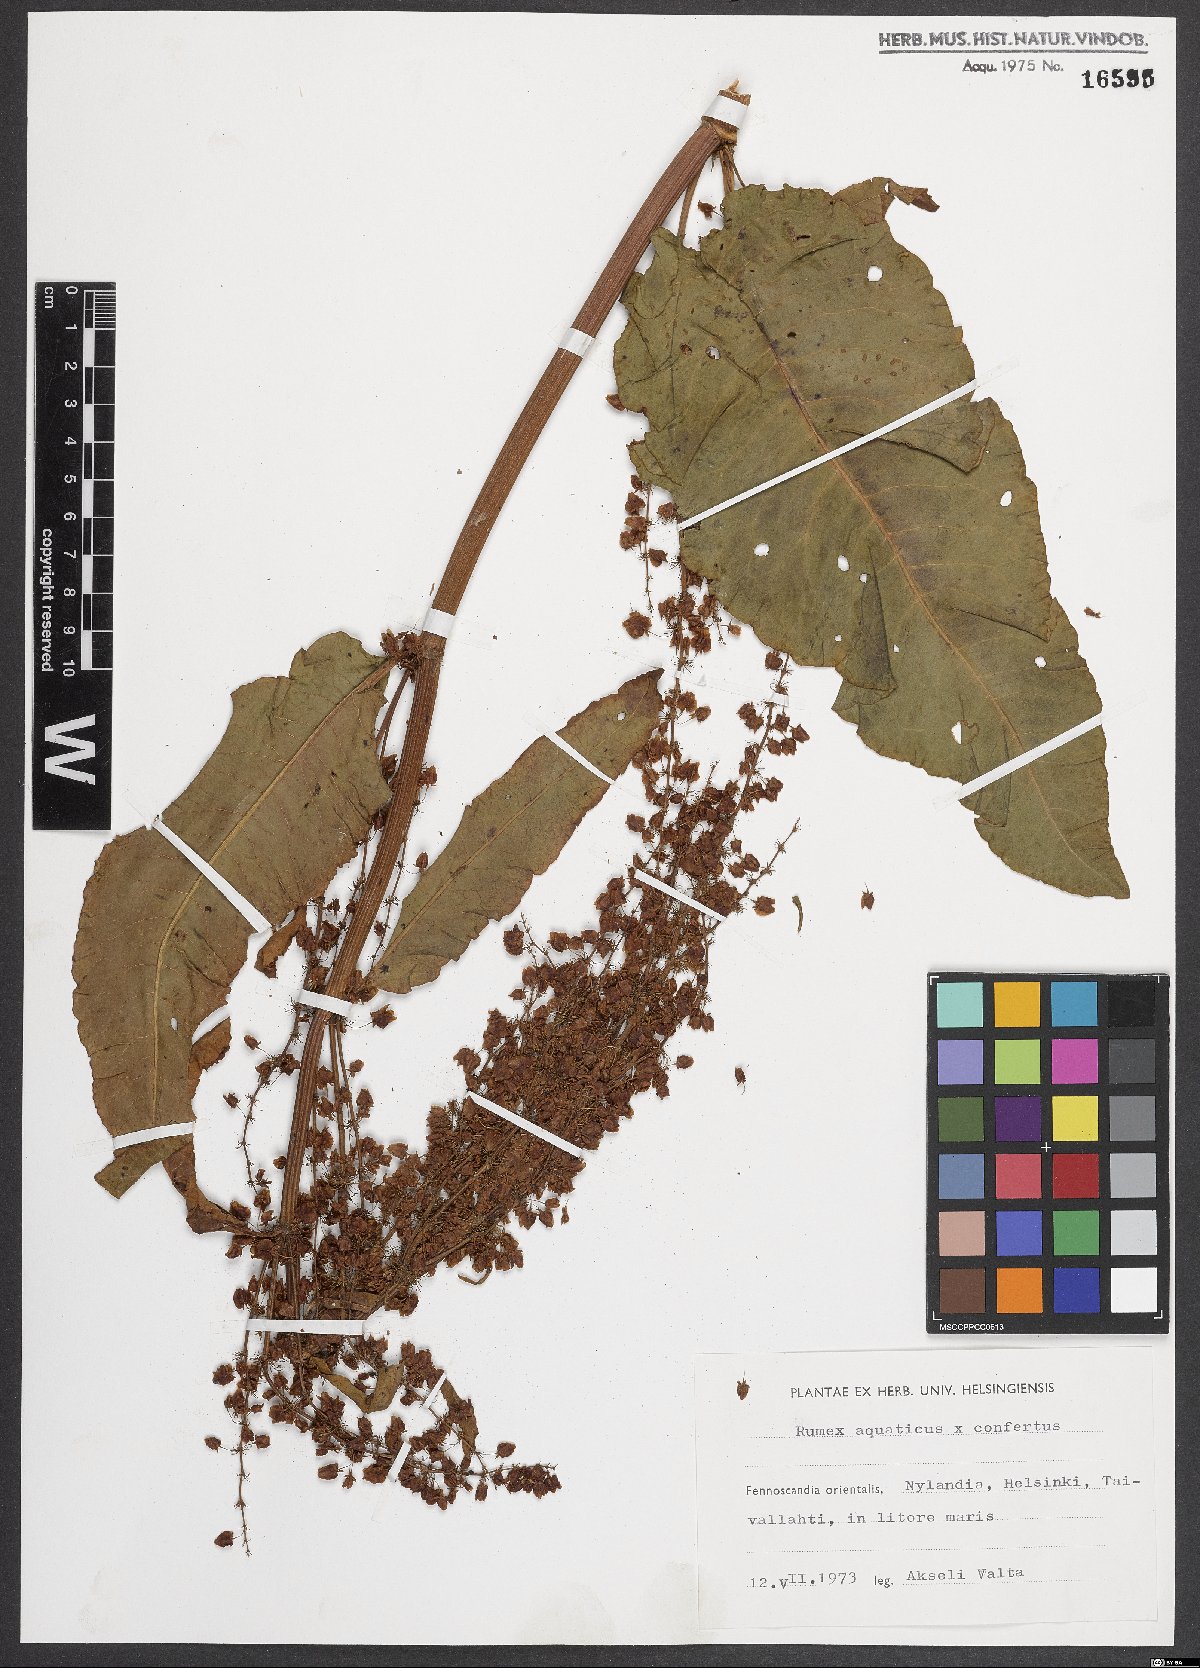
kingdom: Plantae
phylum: Tracheophyta
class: Magnoliopsida
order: Caryophyllales
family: Polygonaceae
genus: Rumex
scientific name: Rumex
